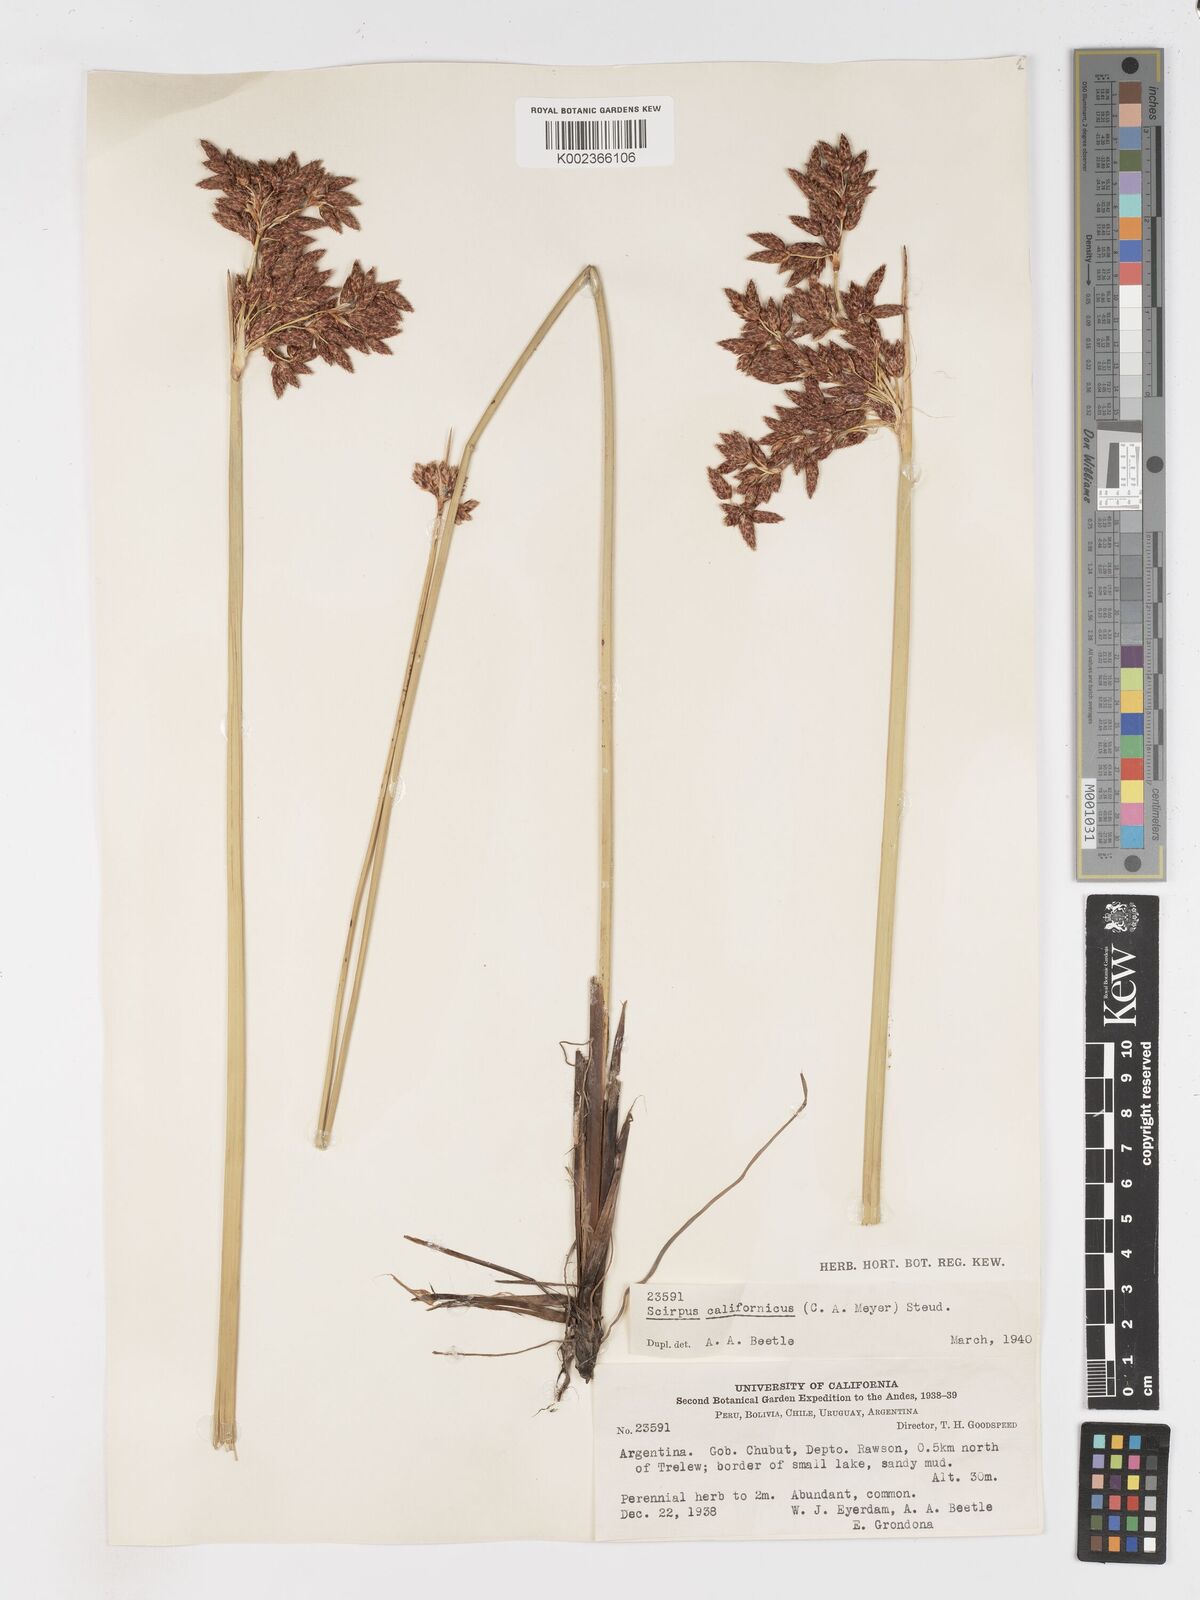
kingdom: Plantae
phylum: Tracheophyta
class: Liliopsida
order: Poales
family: Cyperaceae
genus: Schoenoplectus
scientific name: Schoenoplectus californicus
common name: California bulrush
